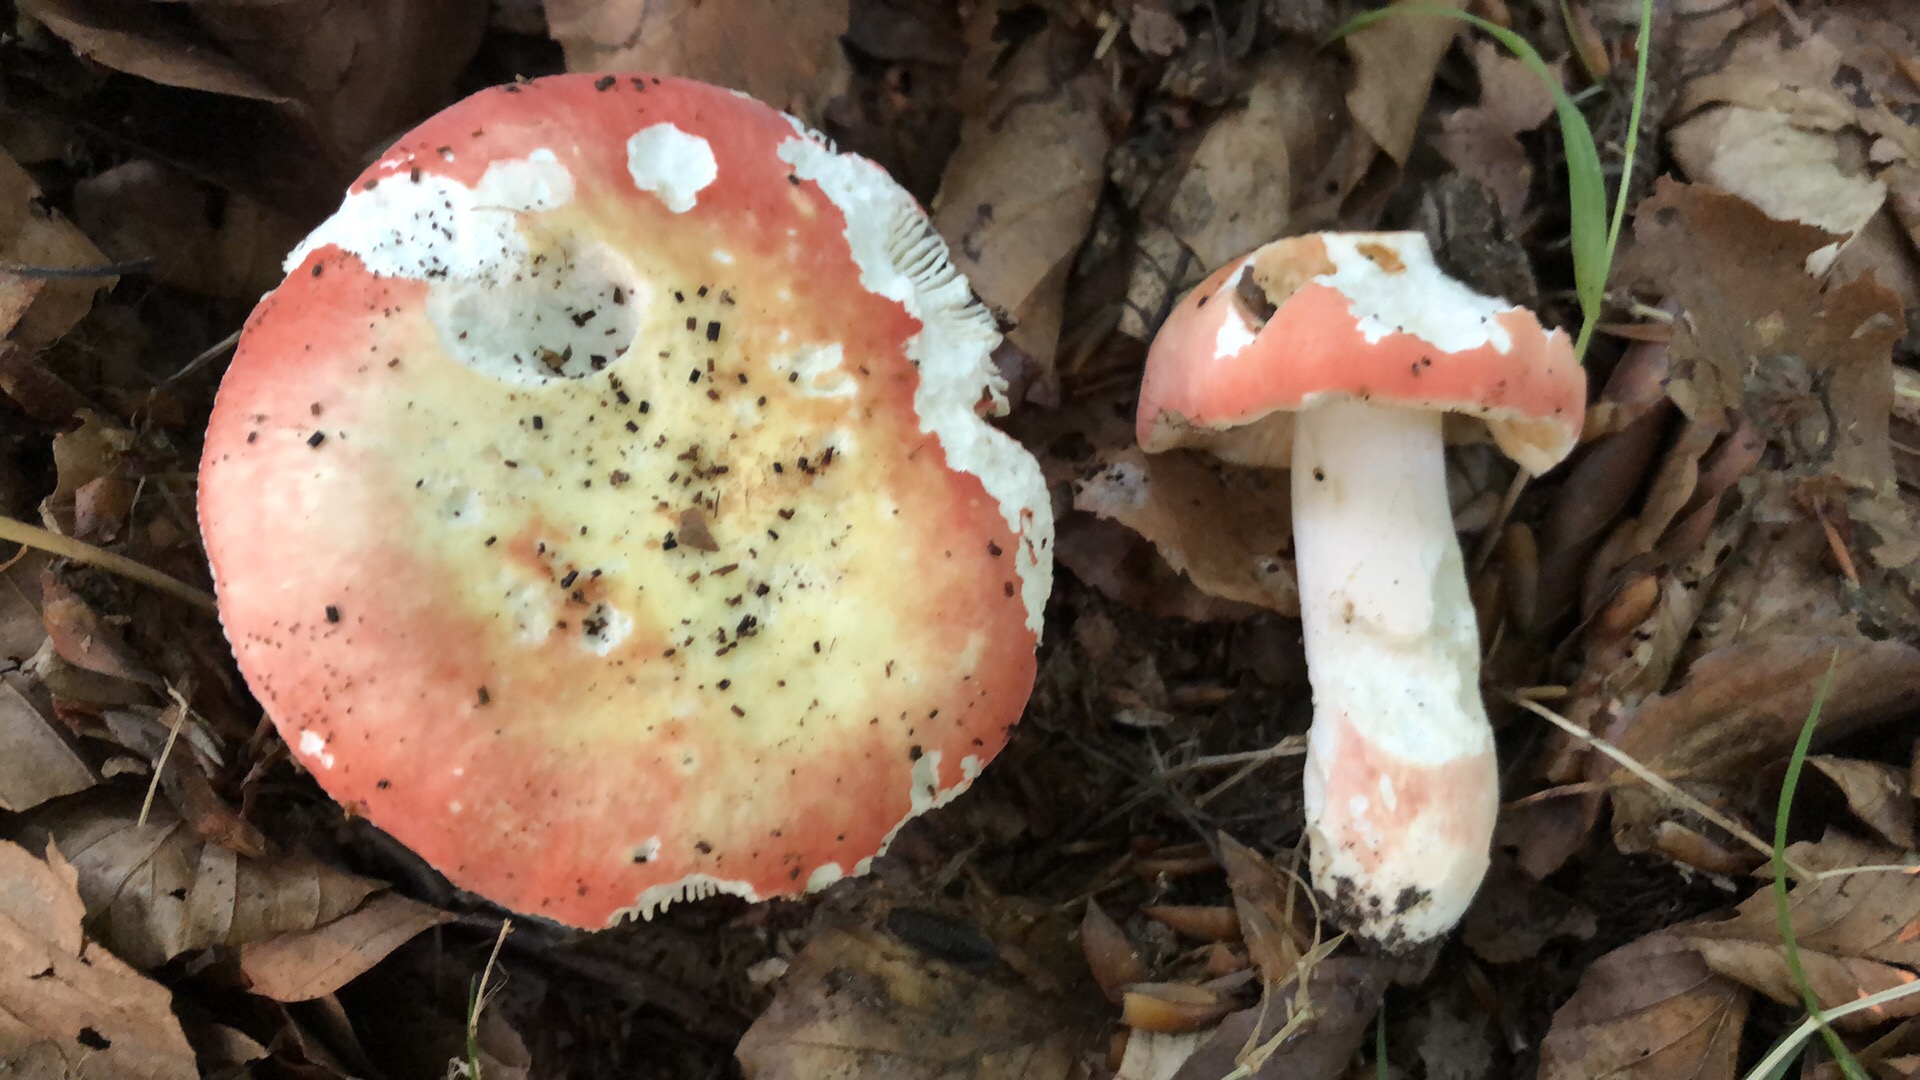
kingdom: Fungi
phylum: Basidiomycota
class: Agaricomycetes
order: Russulales
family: Russulaceae
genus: Russula
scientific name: Russula rosea
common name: fastkødet skørhat
